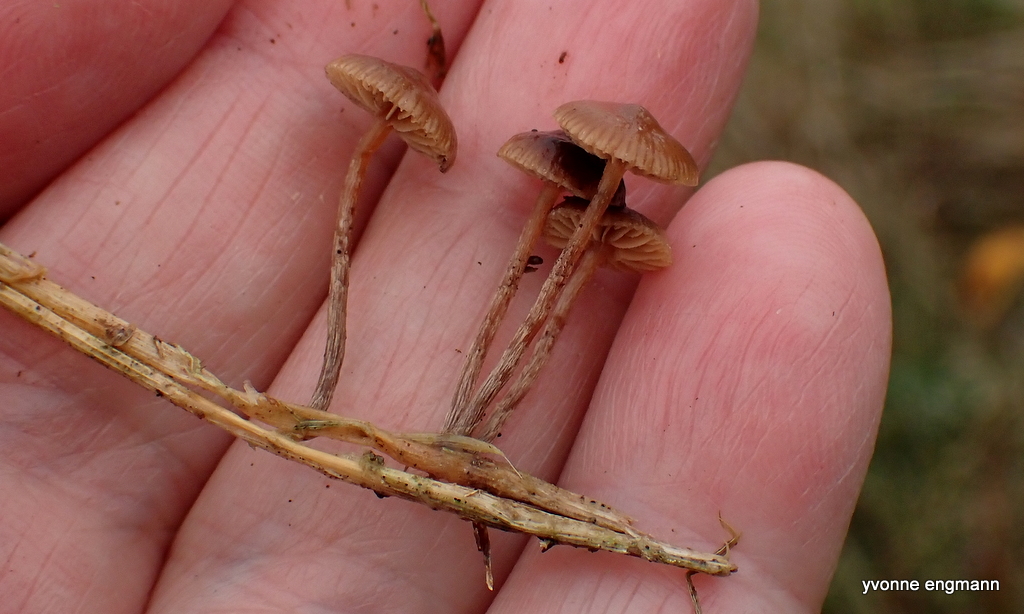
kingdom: Fungi
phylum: Basidiomycota
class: Agaricomycetes
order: Agaricales
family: Strophariaceae
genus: Deconica
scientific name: Deconica
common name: stråhat
